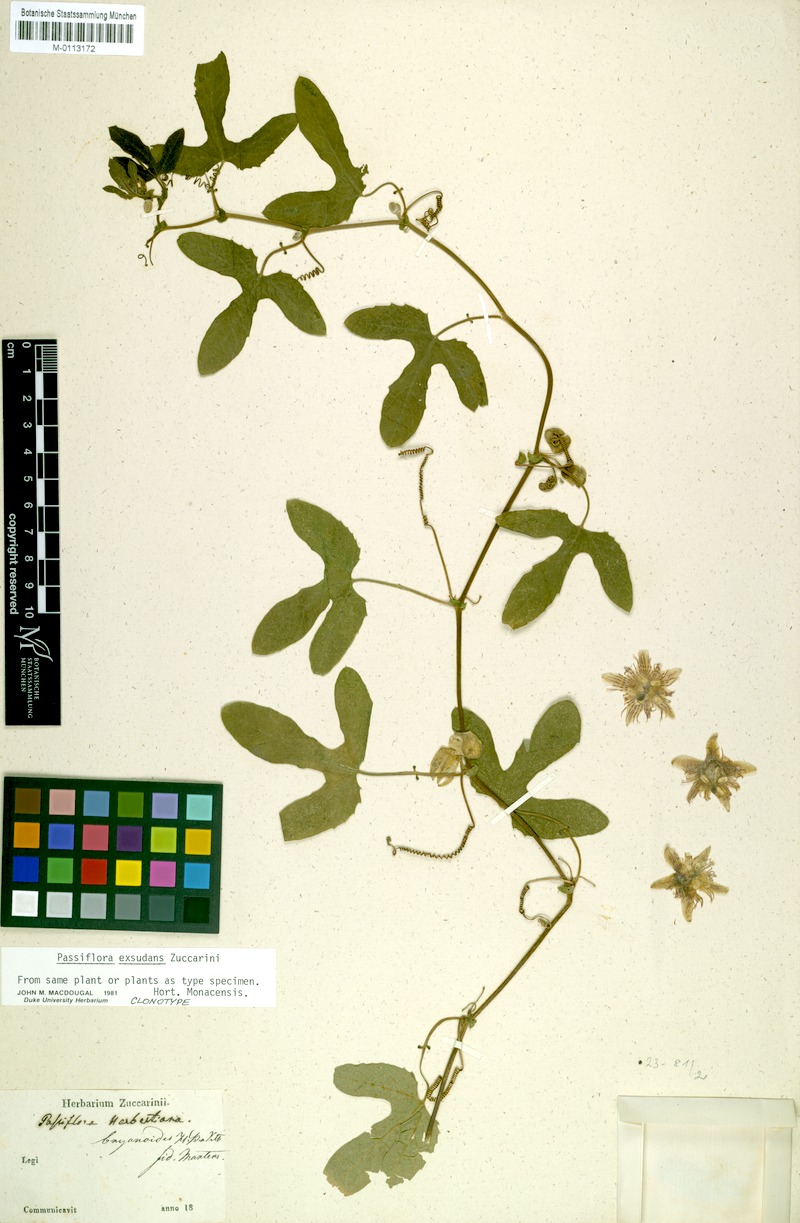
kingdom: Plantae
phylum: Tracheophyta
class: Magnoliopsida
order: Malpighiales
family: Passifloraceae
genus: Passiflora
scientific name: Passiflora exsudans
